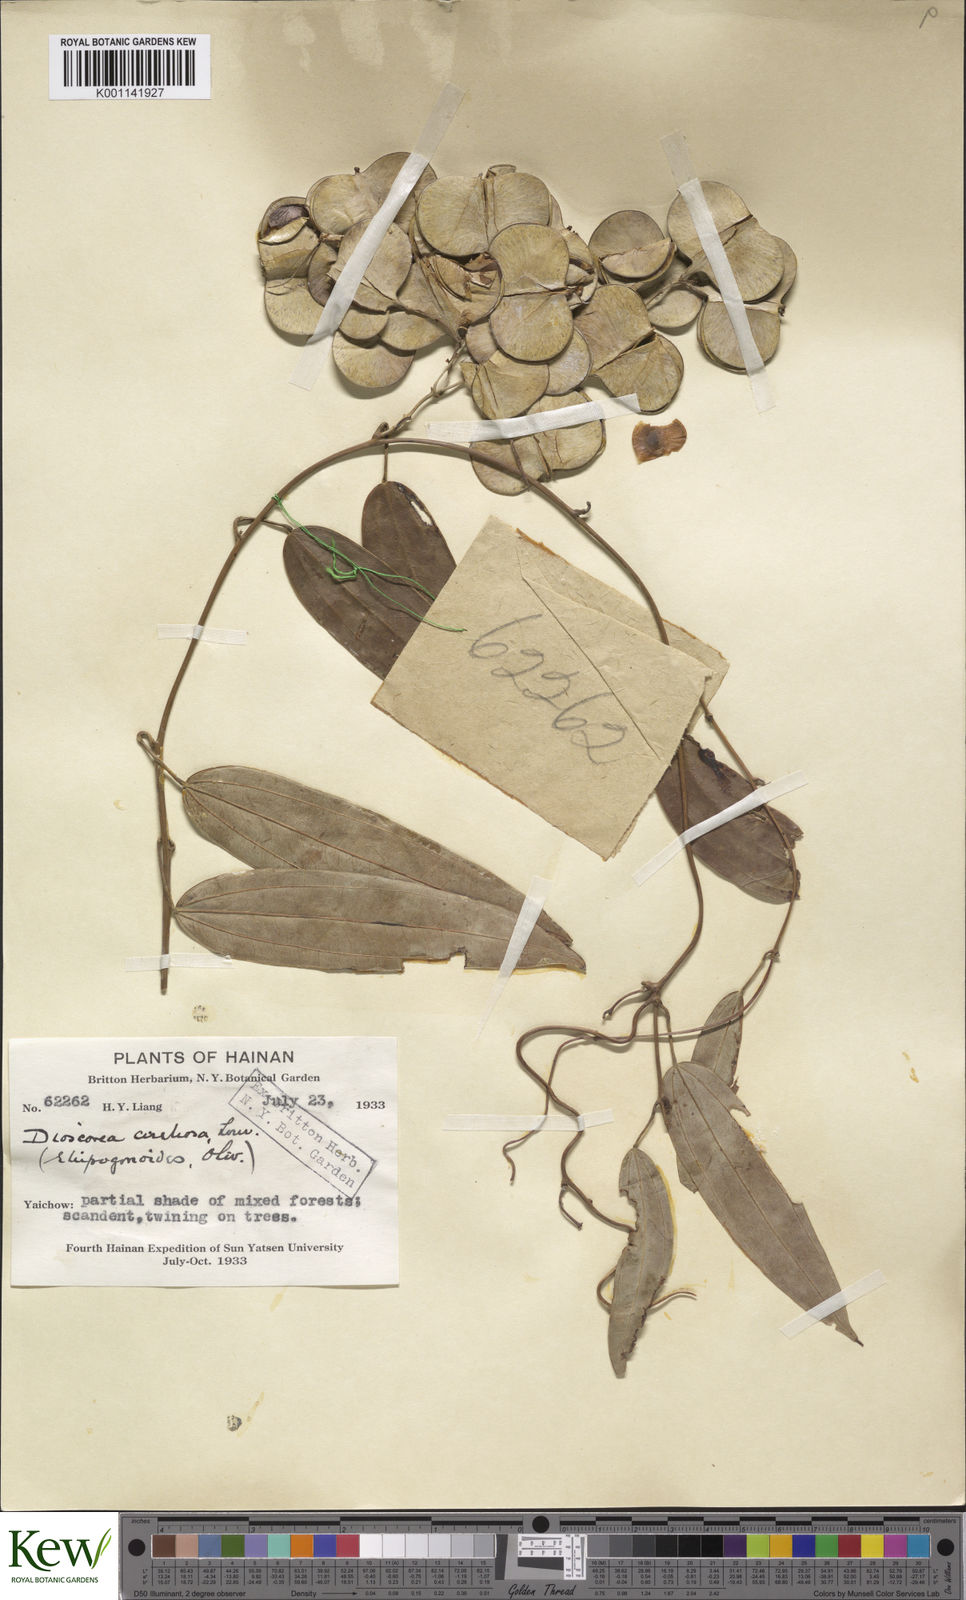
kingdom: Plantae
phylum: Tracheophyta
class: Liliopsida
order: Dioscoreales
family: Dioscoreaceae
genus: Dioscorea
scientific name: Dioscorea cirrhosa
